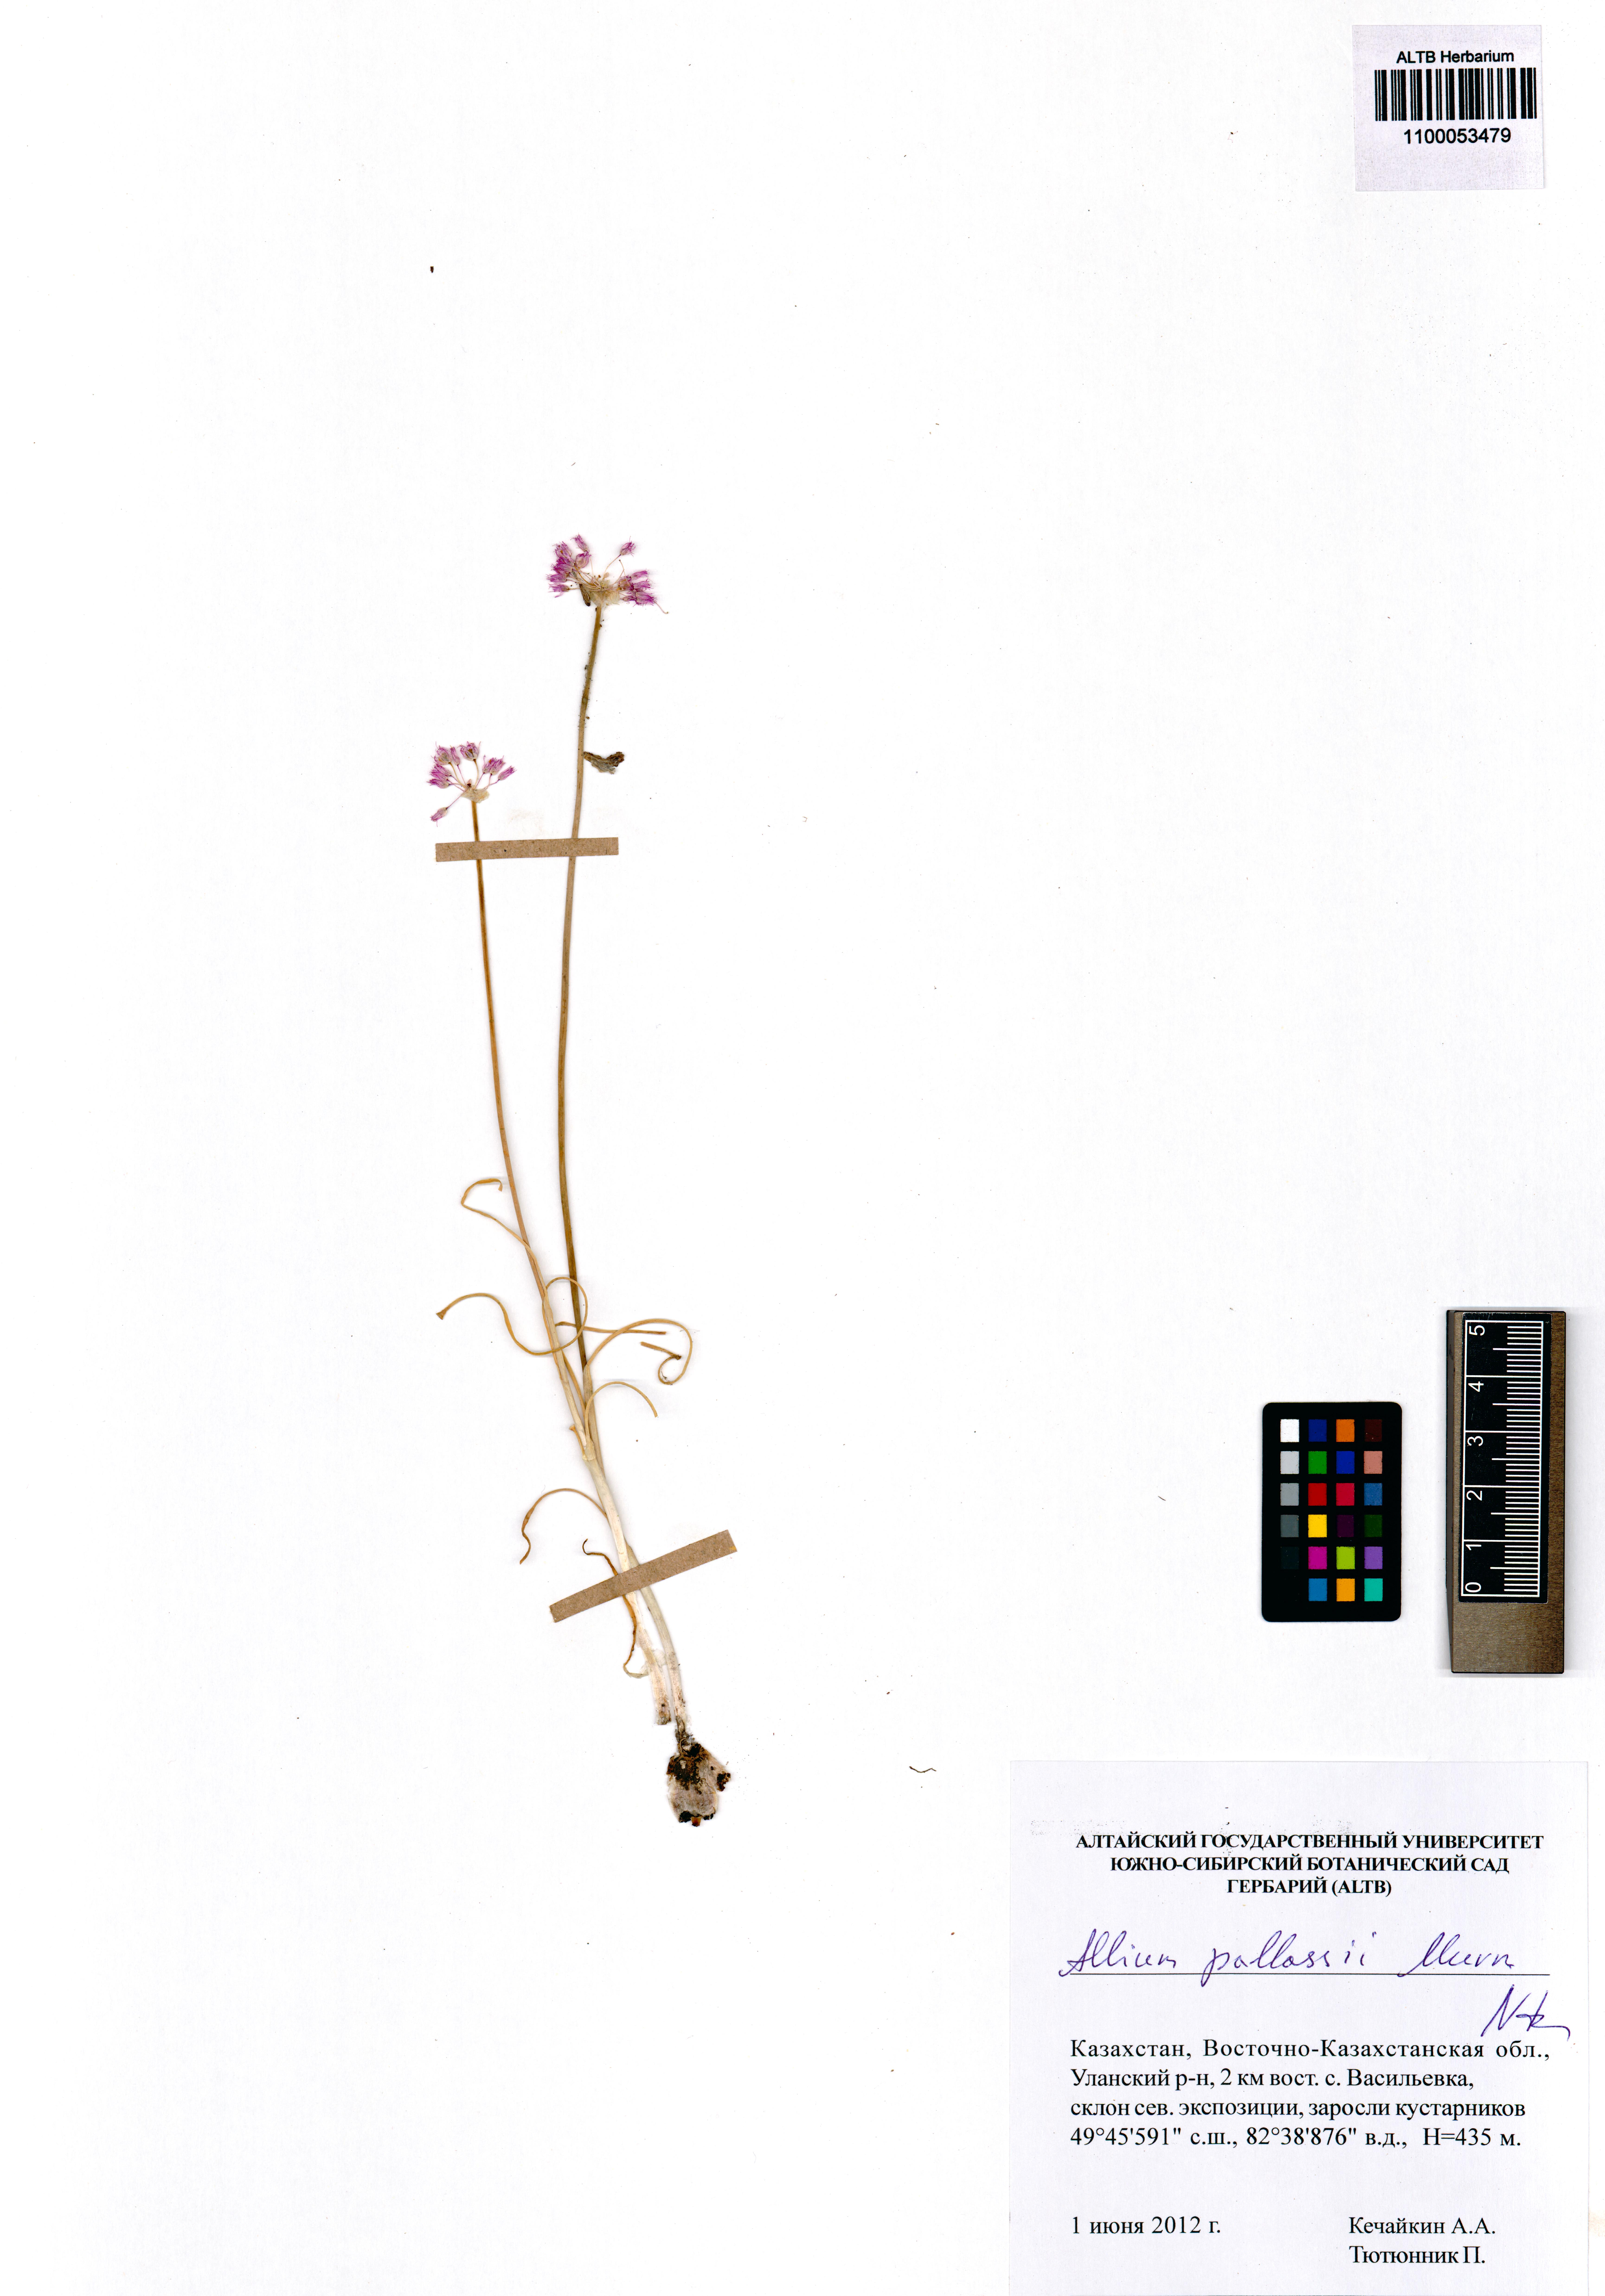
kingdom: Plantae
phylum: Tracheophyta
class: Liliopsida
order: Asparagales
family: Amaryllidaceae
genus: Allium
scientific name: Allium pallasii
